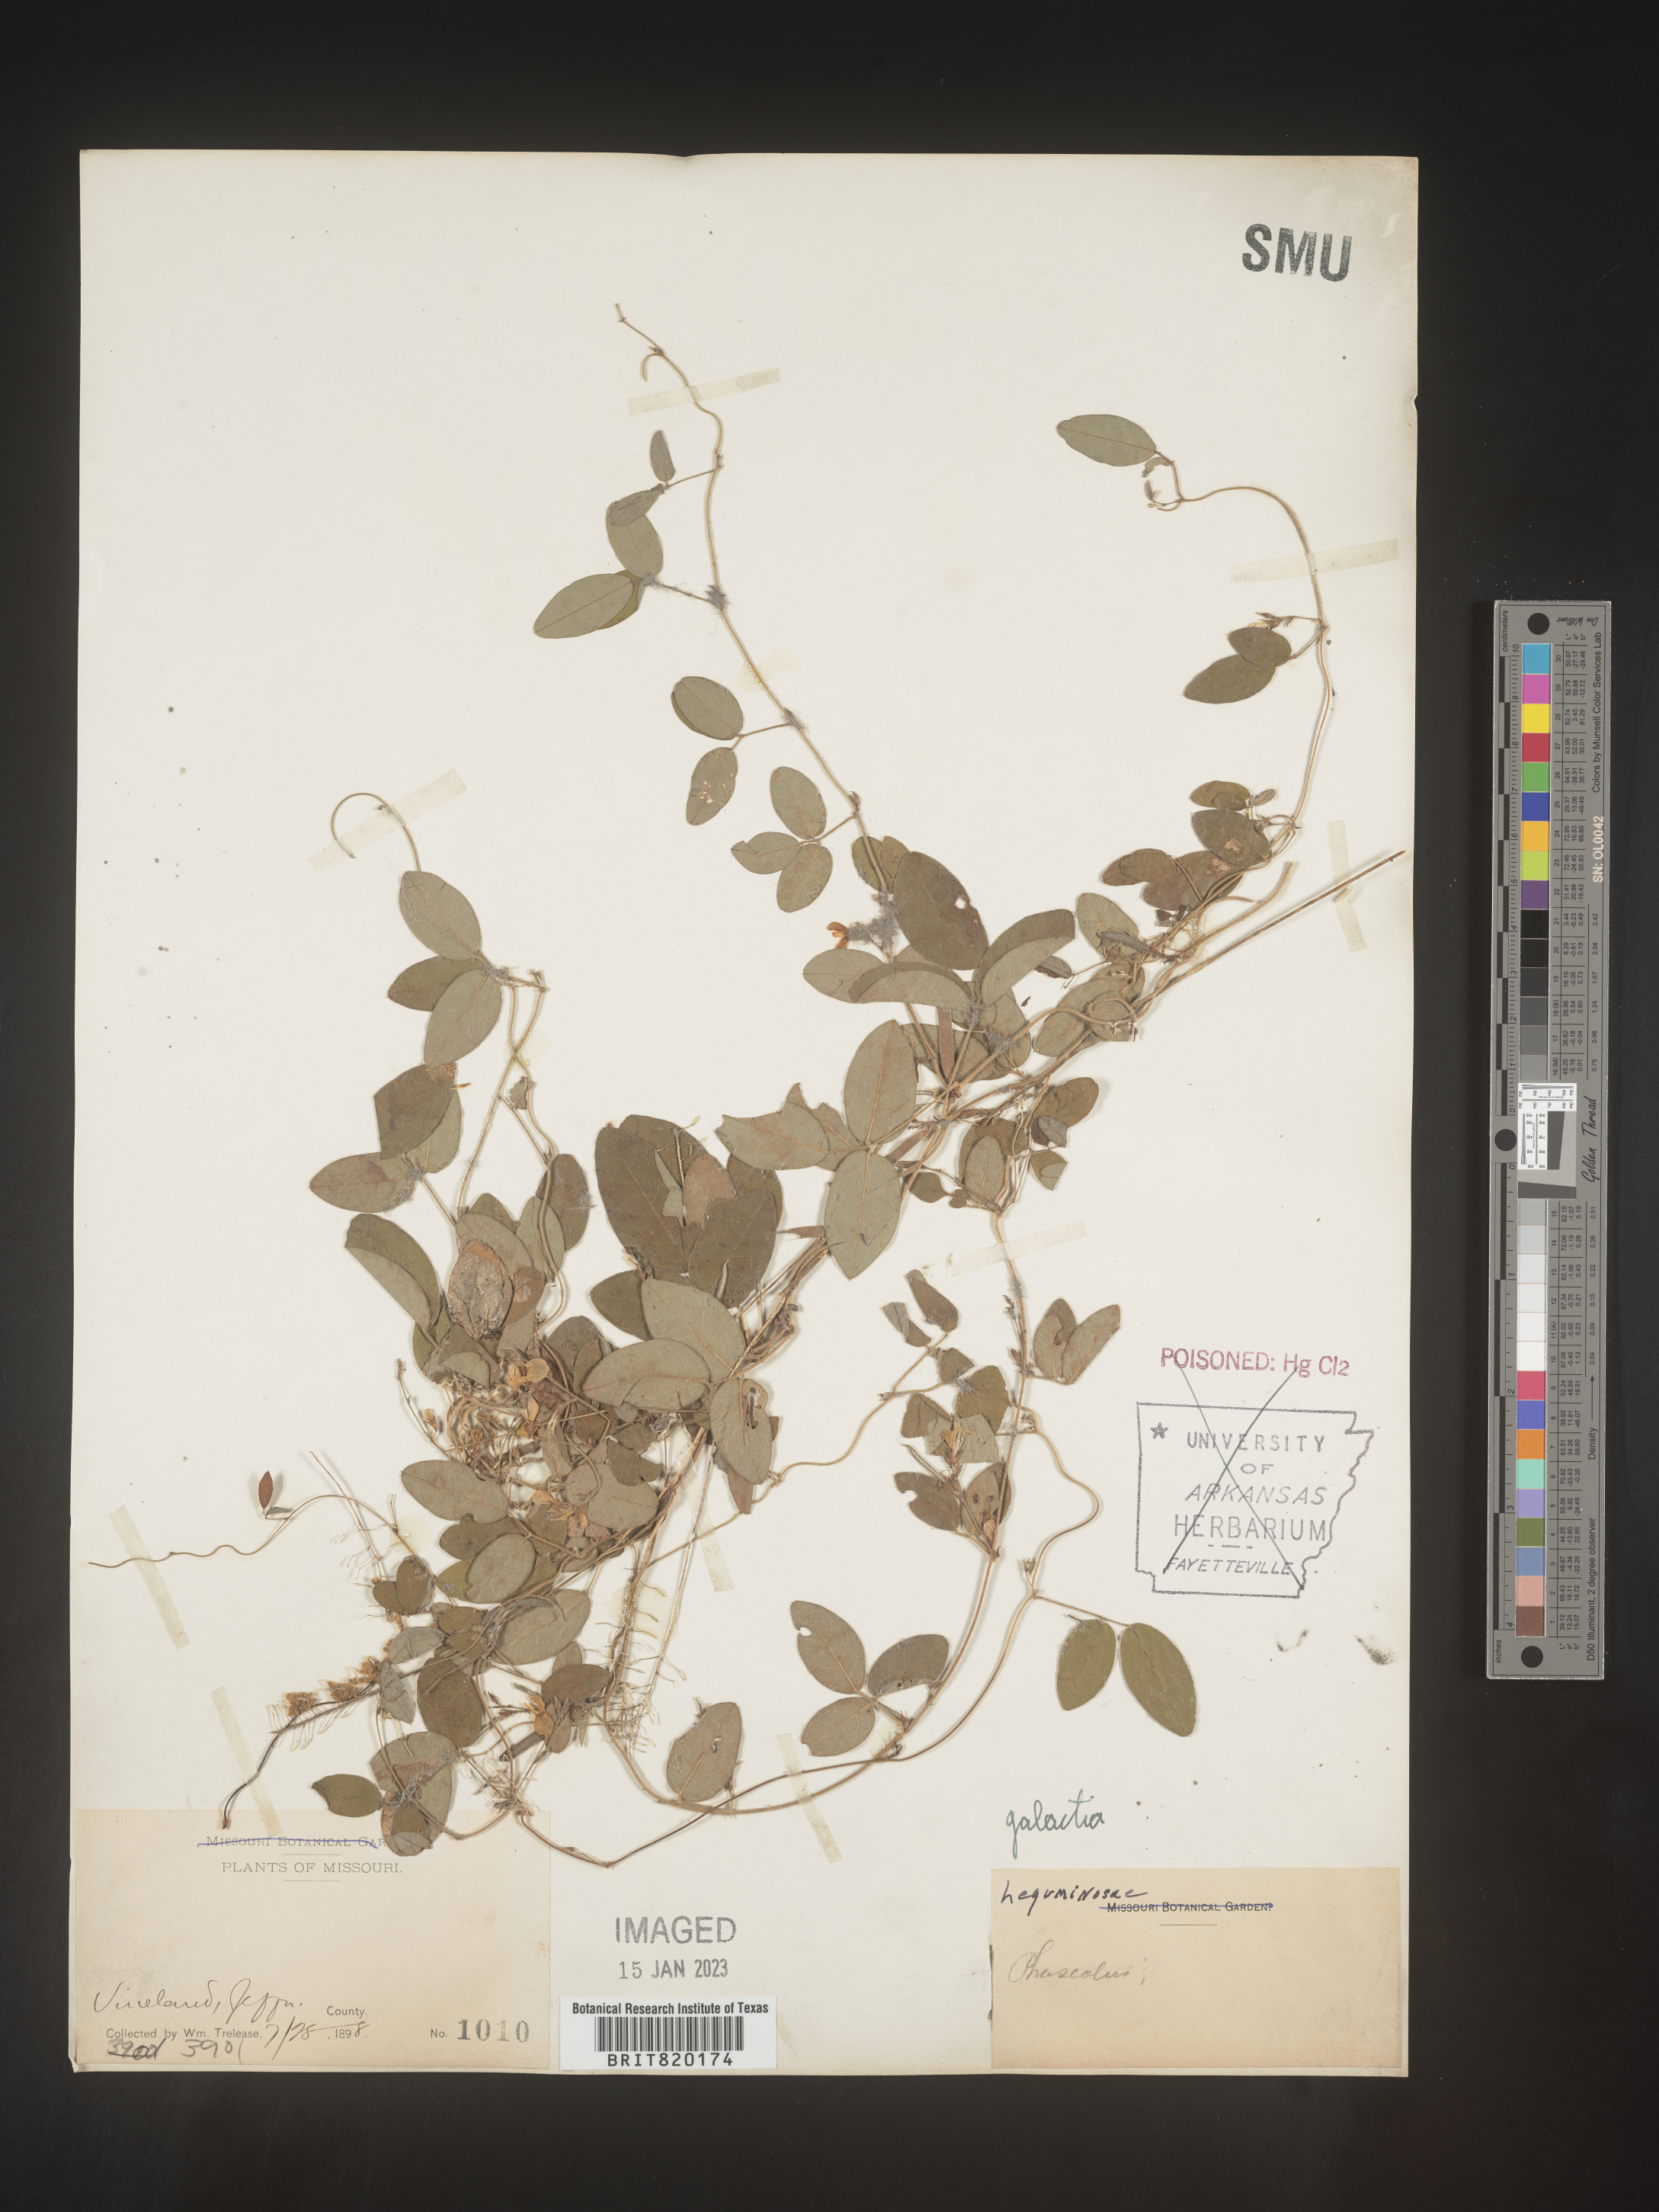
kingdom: Plantae
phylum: Tracheophyta
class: Magnoliopsida
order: Fabales
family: Fabaceae
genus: Galactia
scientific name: Galactia volubilis
